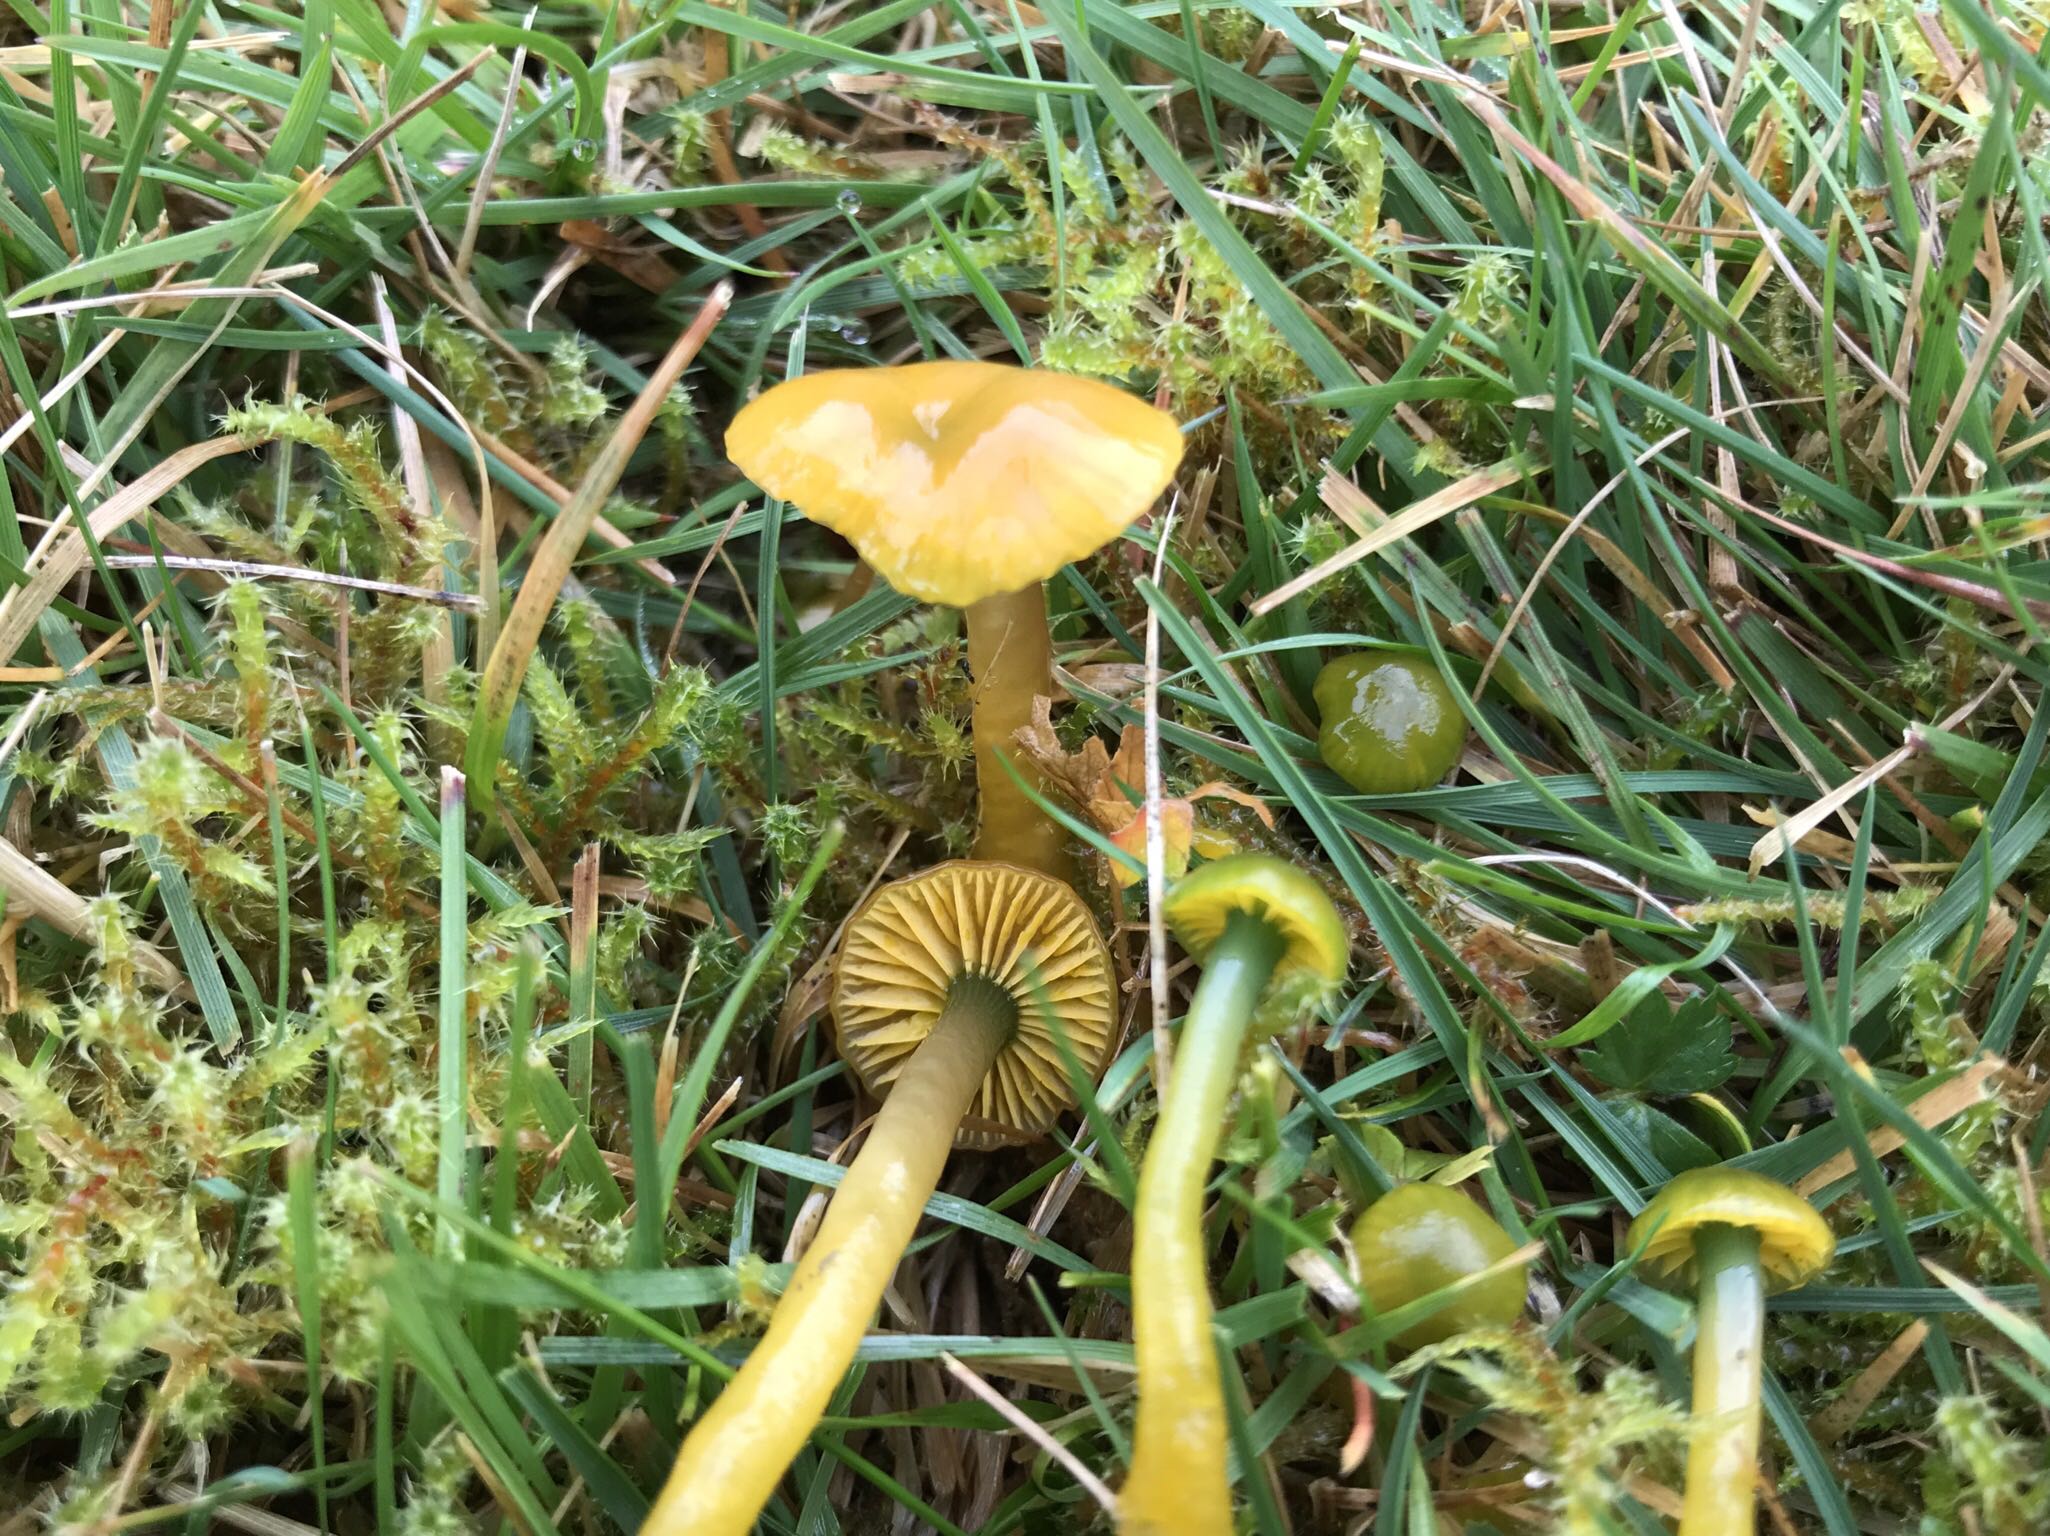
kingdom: Fungi
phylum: Basidiomycota
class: Agaricomycetes
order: Agaricales
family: Hygrophoraceae
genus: Gliophorus
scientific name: Gliophorus psittacinus
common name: papegøje-vokshat
